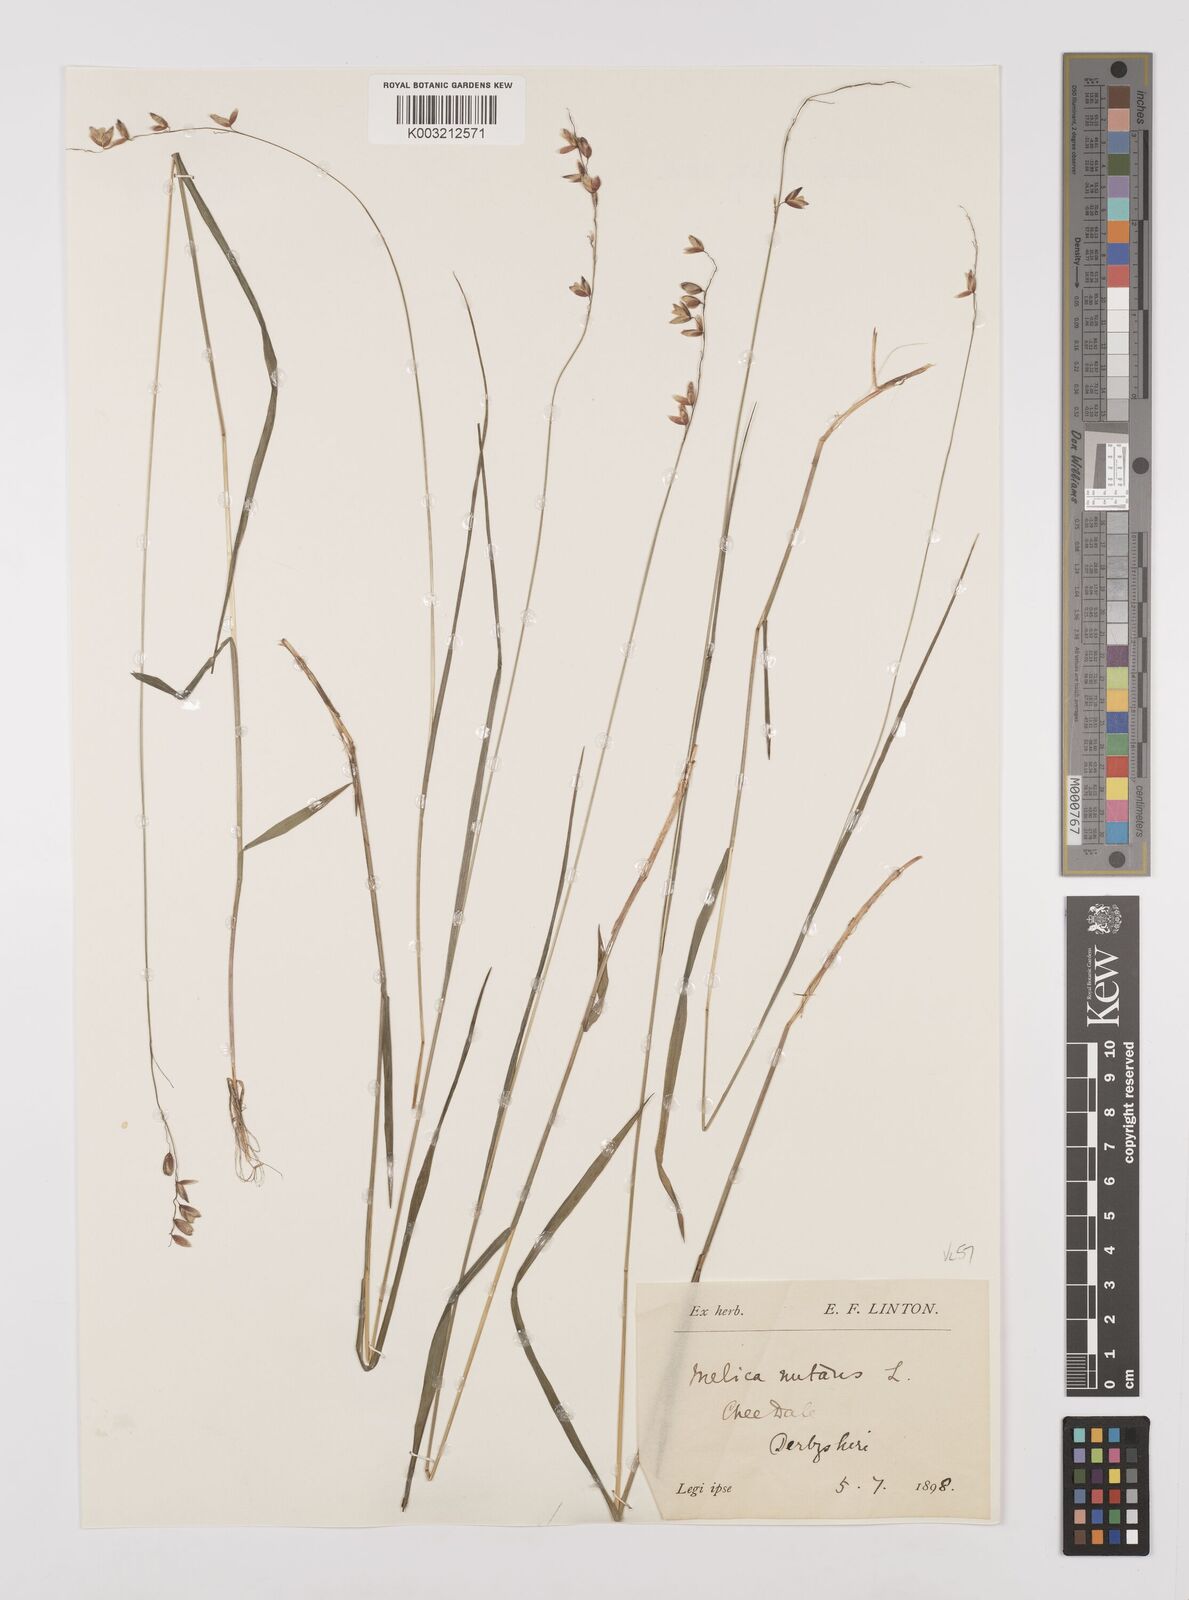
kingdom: Plantae
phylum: Tracheophyta
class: Liliopsida
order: Poales
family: Poaceae
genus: Melica
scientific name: Melica
